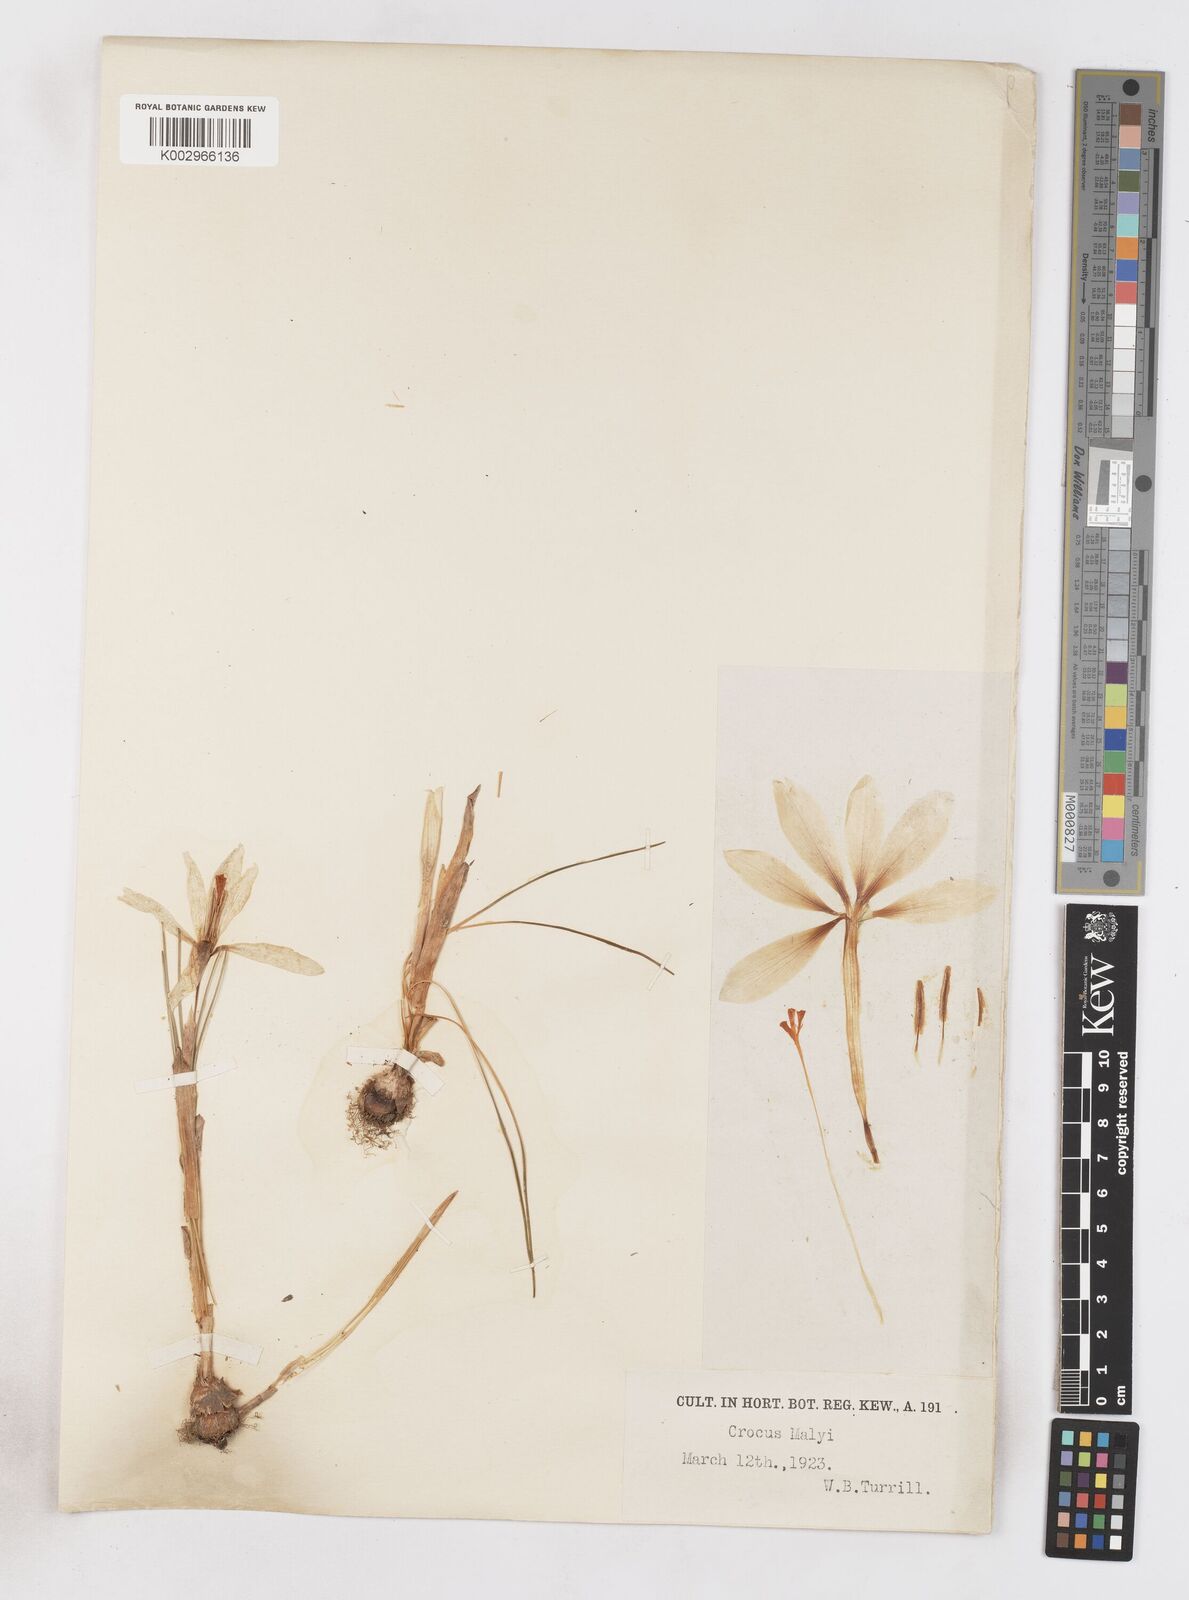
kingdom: Plantae
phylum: Tracheophyta
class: Liliopsida
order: Asparagales
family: Iridaceae
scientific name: Iridaceae
